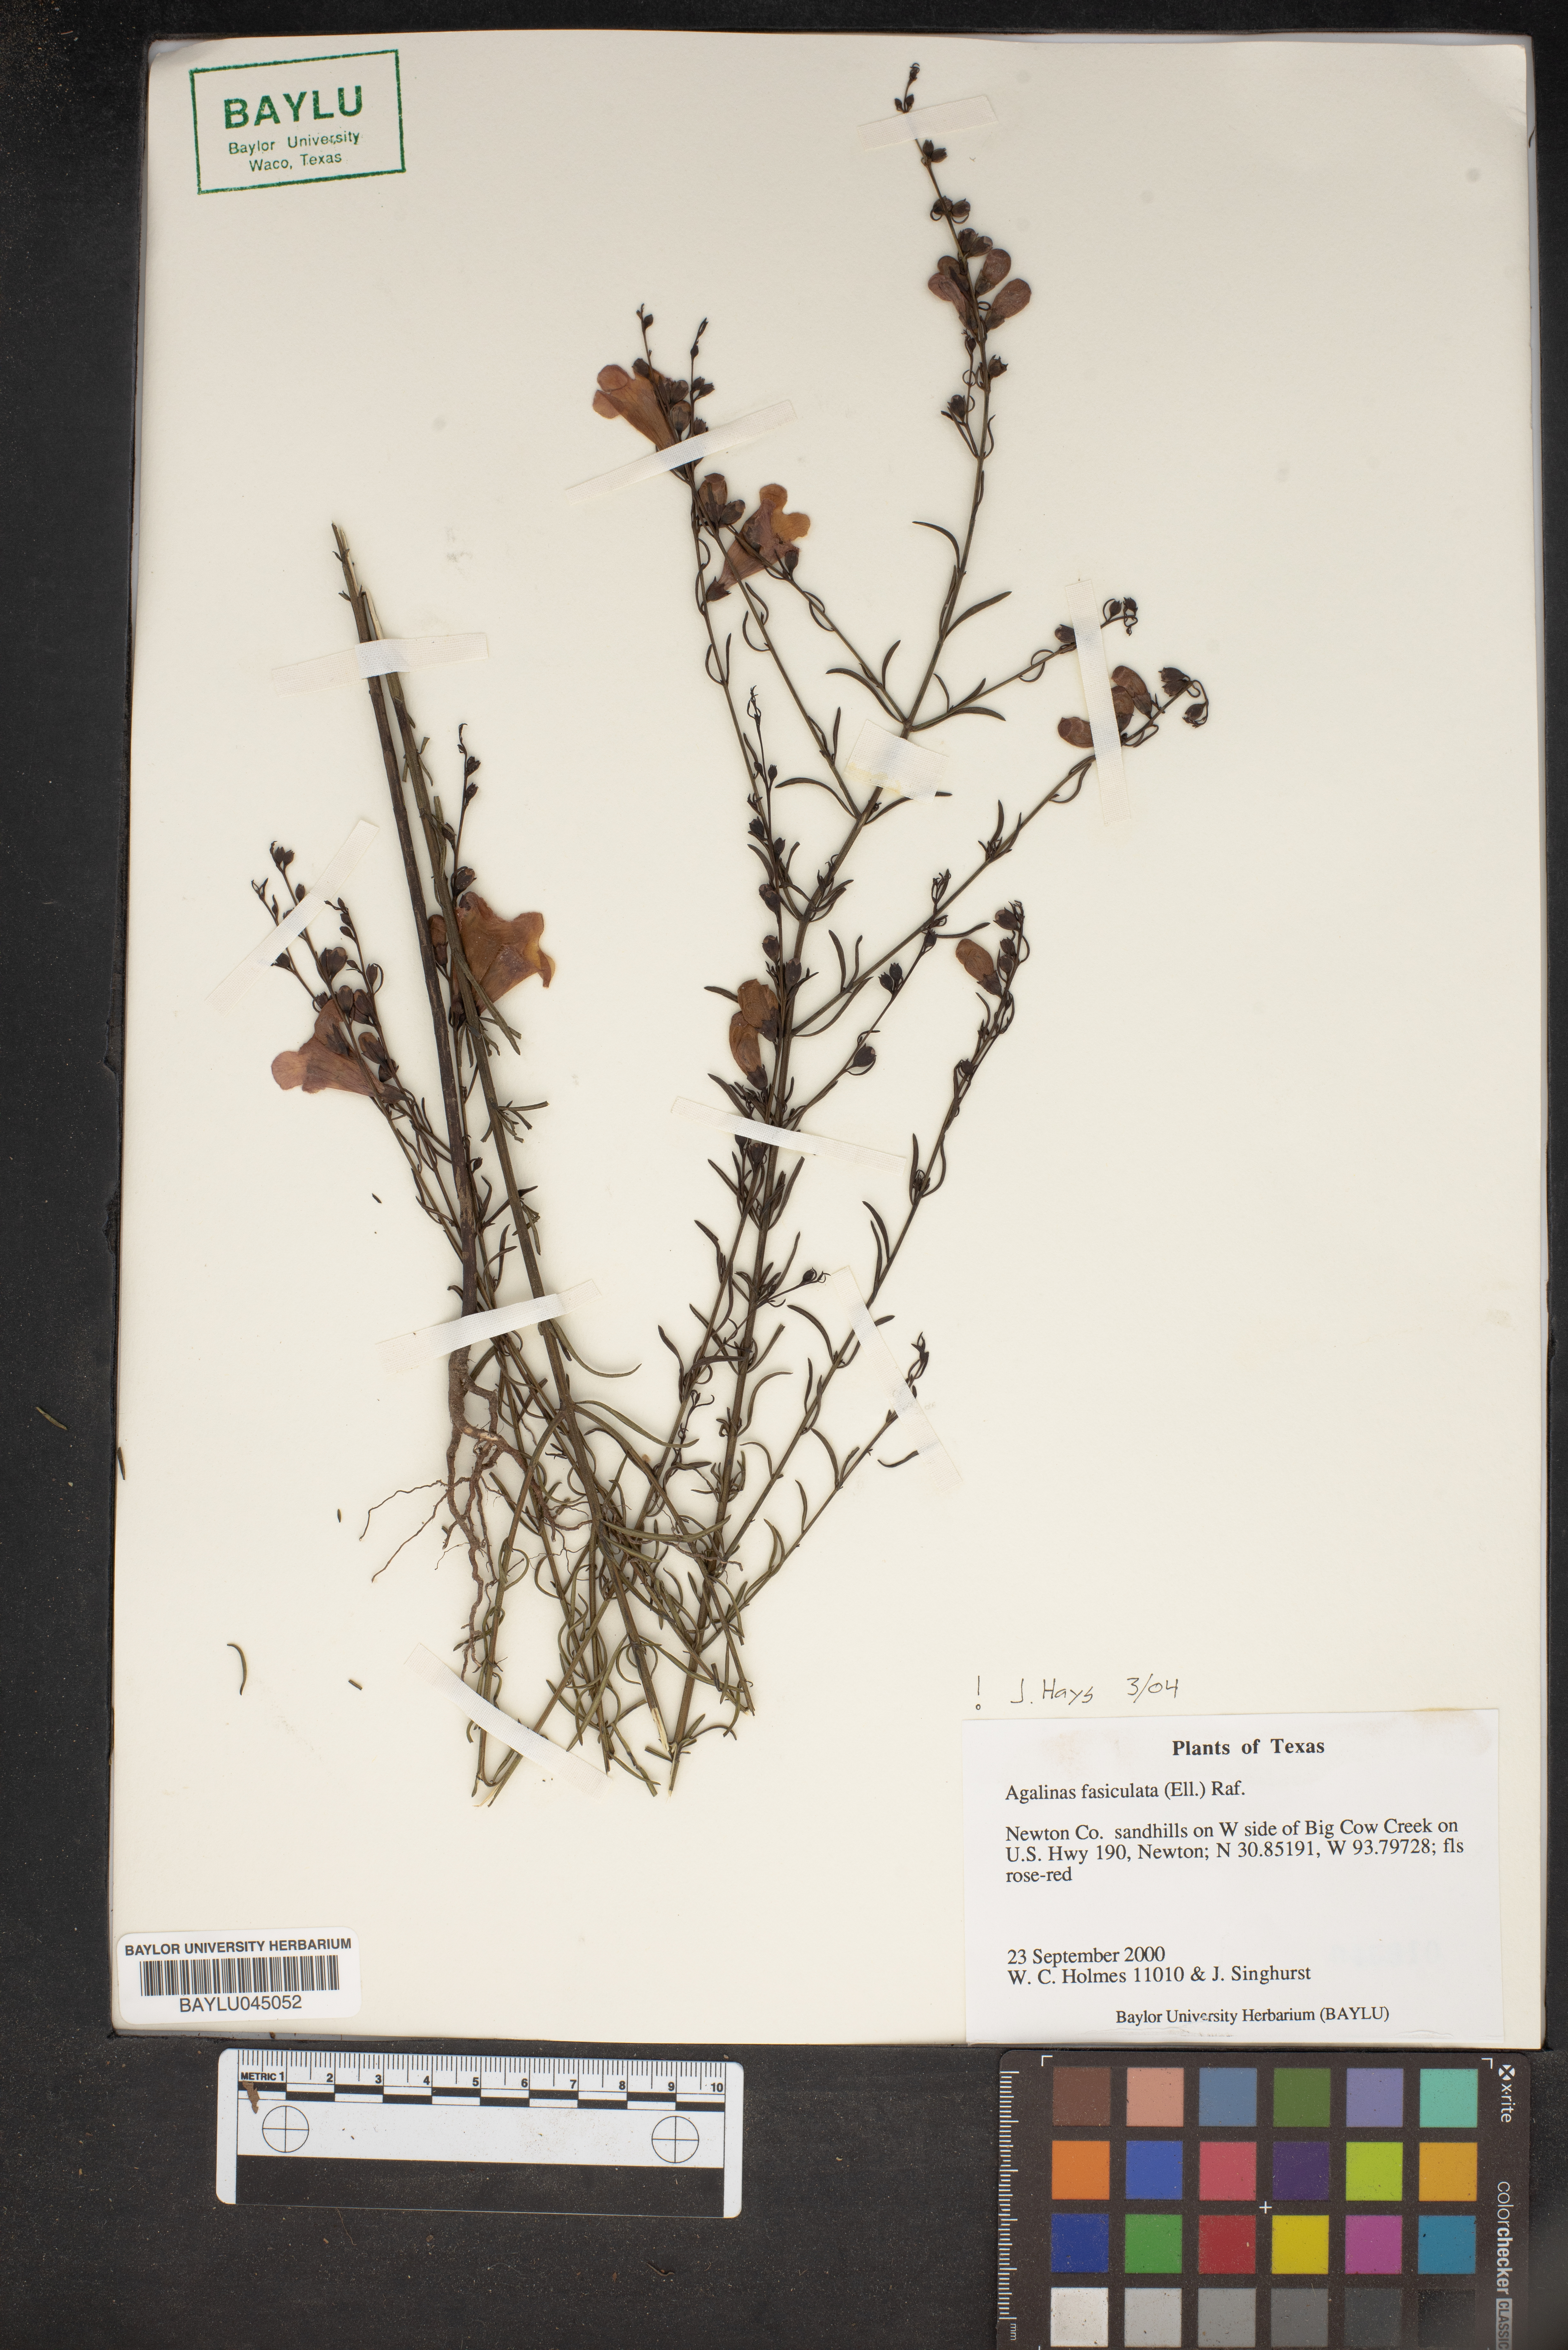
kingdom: Plantae
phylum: Tracheophyta
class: Magnoliopsida
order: Lamiales
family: Orobanchaceae
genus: Agalinis
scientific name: Agalinis fasciculata
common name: Beach false foxglove
